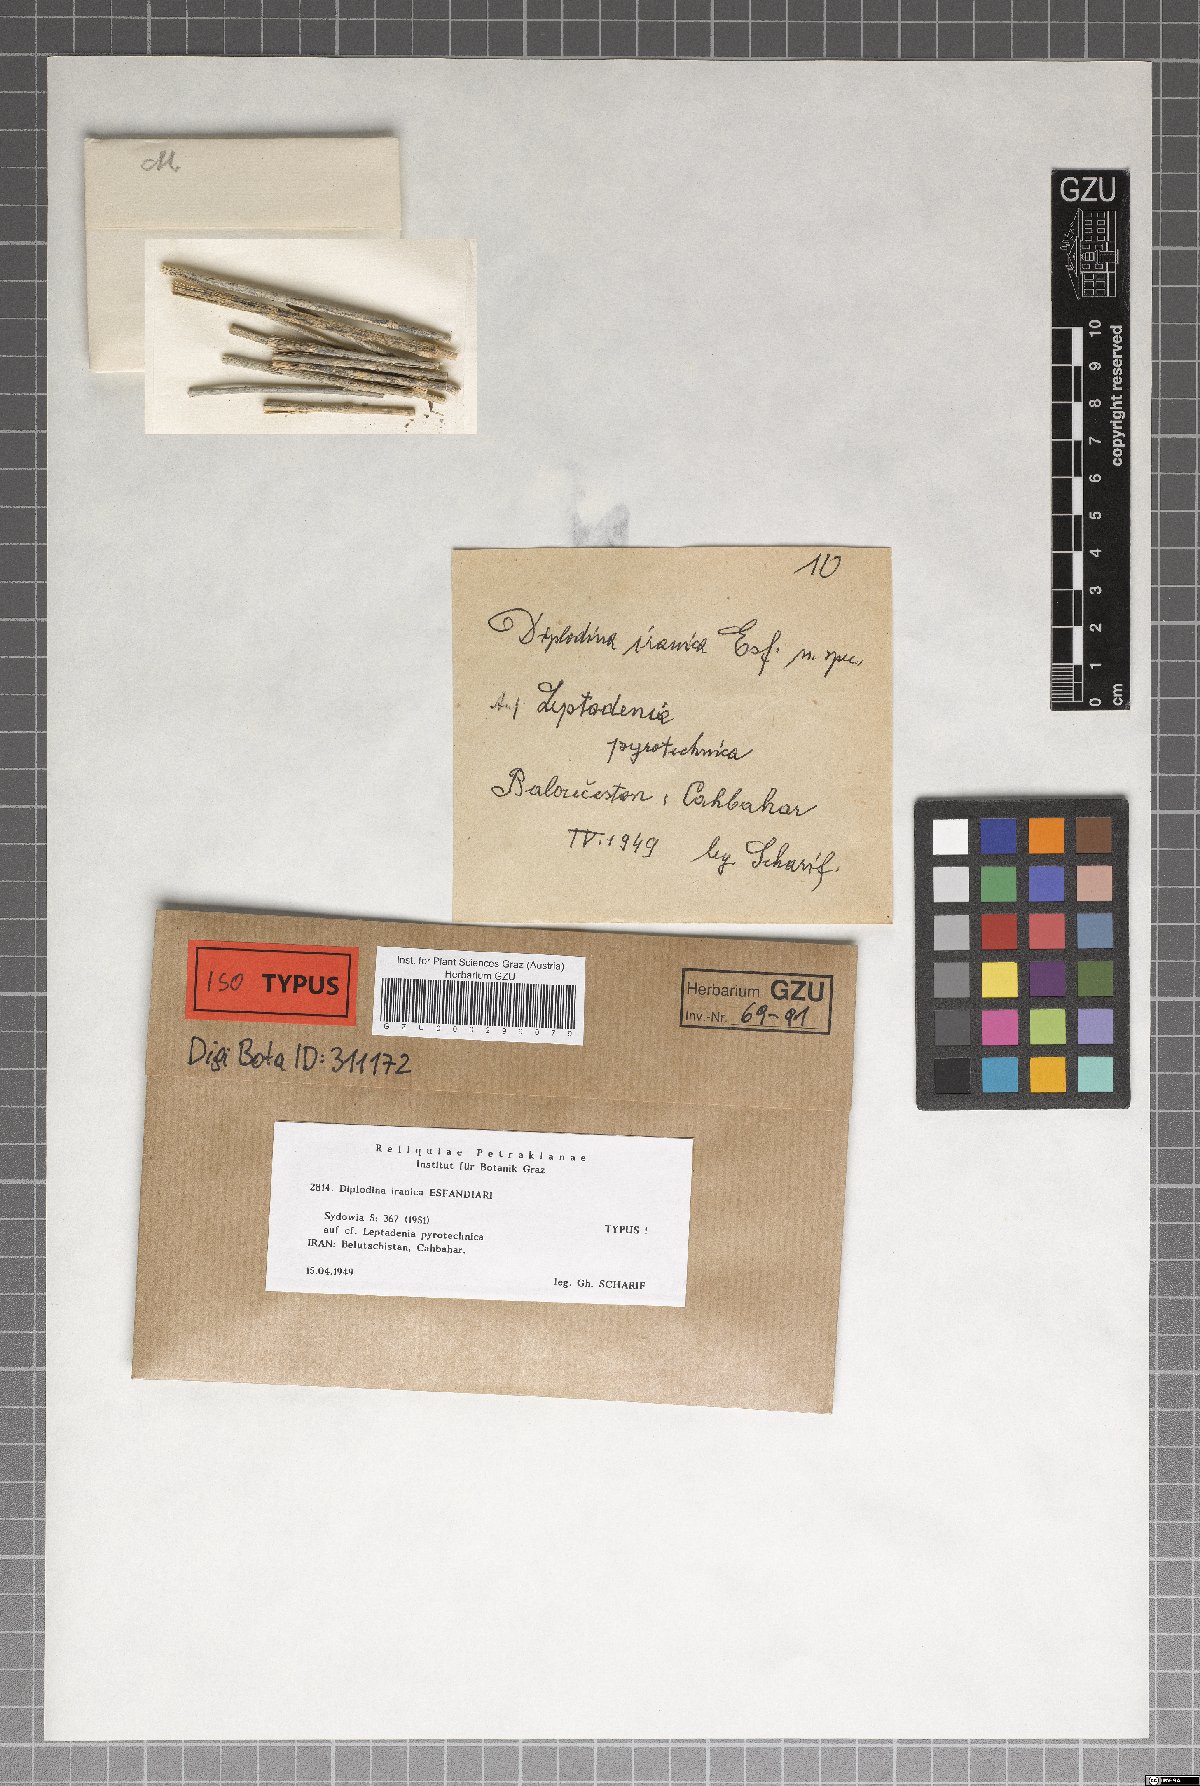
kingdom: Fungi
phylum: Ascomycota
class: Sordariomycetes
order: Diaporthales
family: Gnomoniaceae
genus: Diplodina
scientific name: Diplodina iranica
